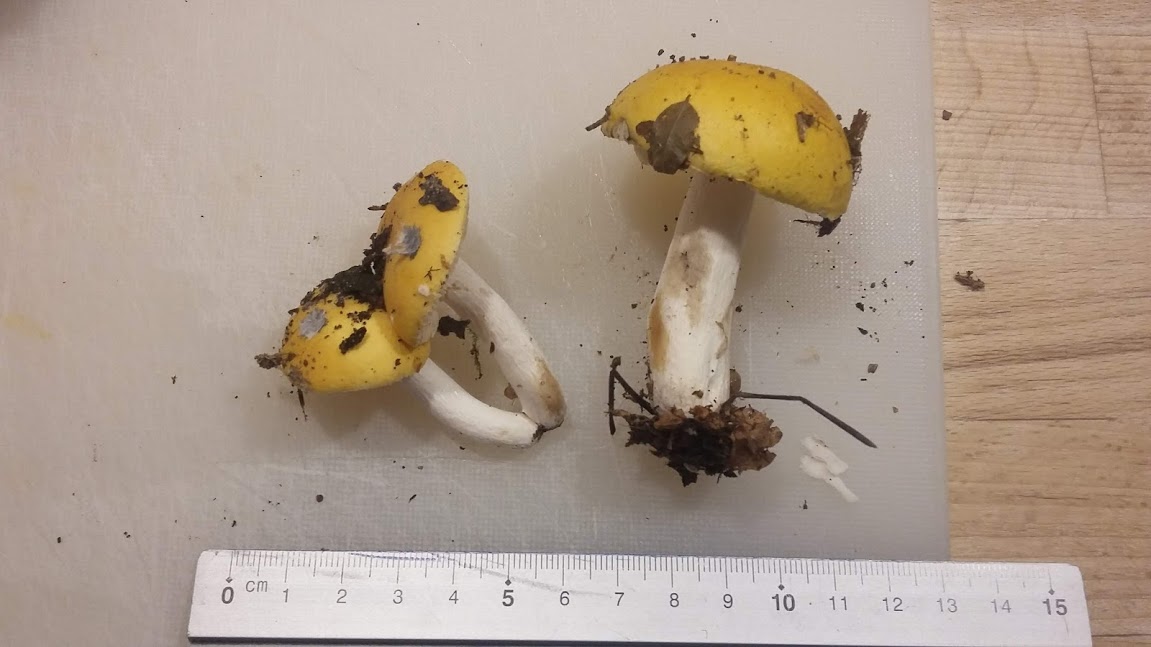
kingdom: Fungi
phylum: Basidiomycota
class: Agaricomycetes
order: Russulales
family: Russulaceae
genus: Russula
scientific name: Russula claroflava
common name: birke-skørhat
